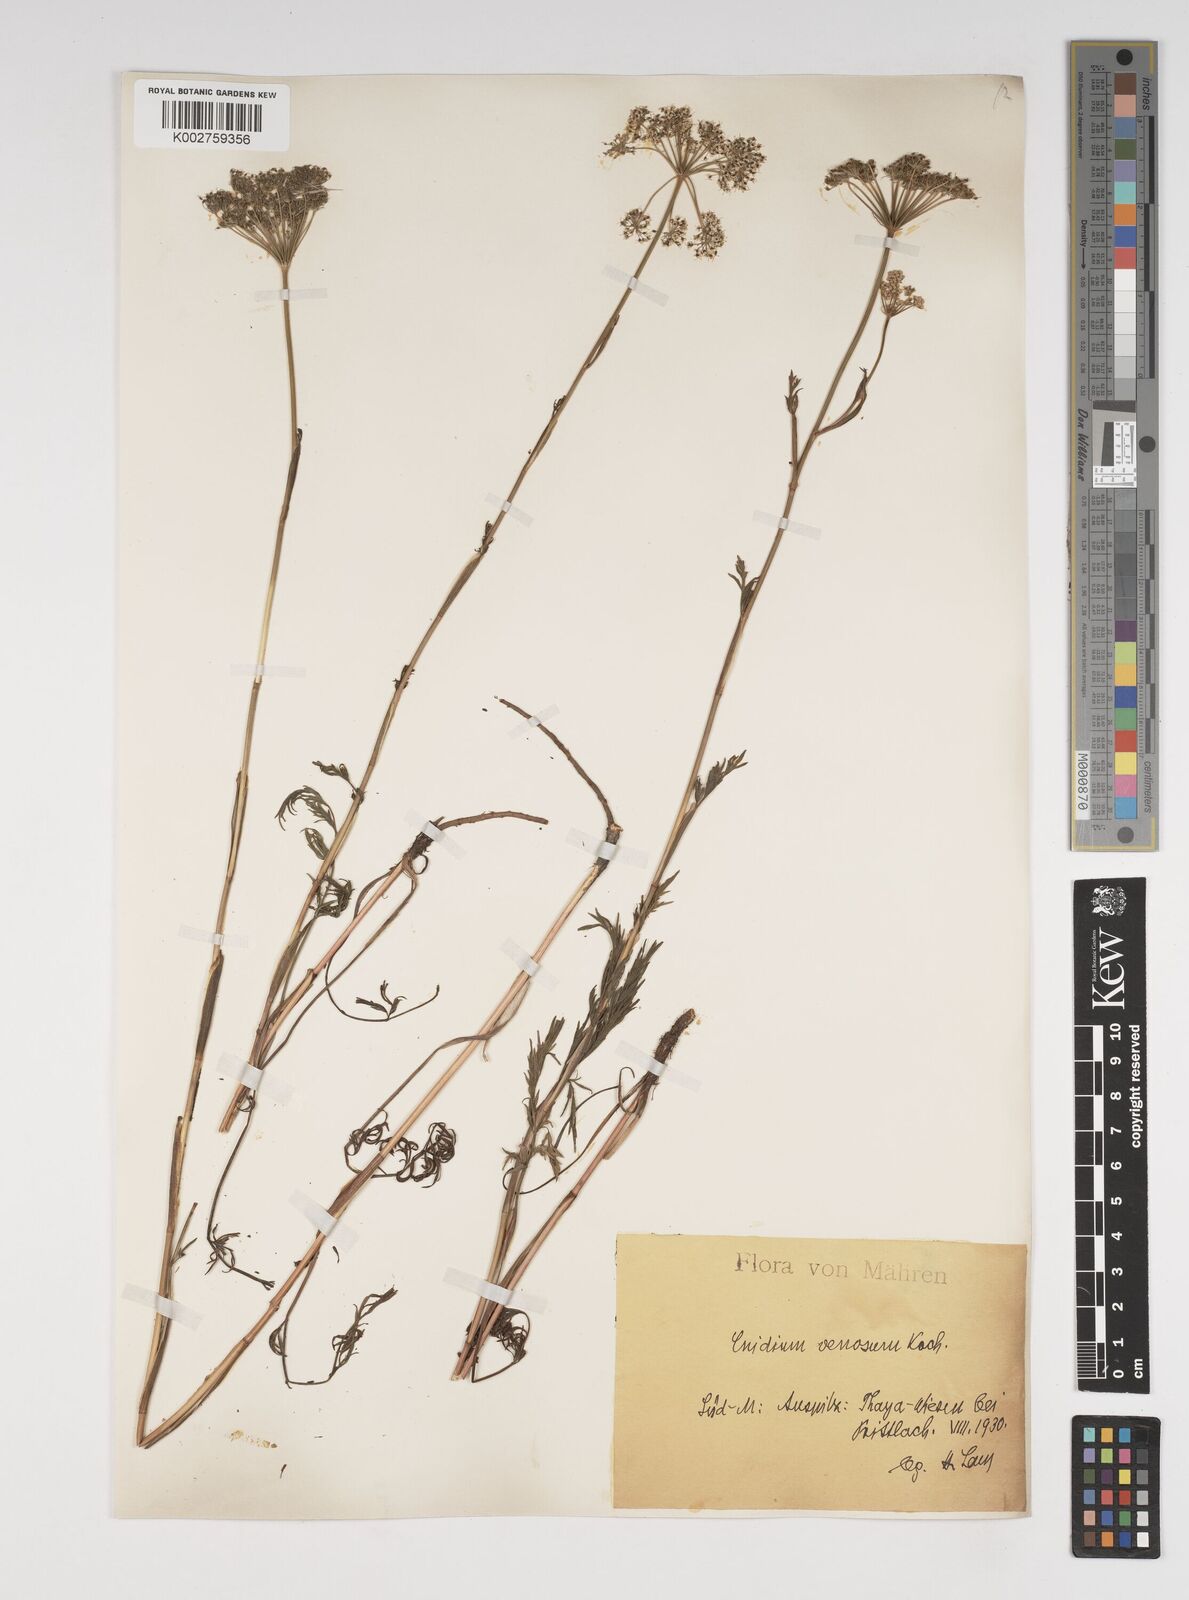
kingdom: Plantae
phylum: Tracheophyta
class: Magnoliopsida
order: Apiales
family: Apiaceae
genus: Kadenia
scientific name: Kadenia dubia
